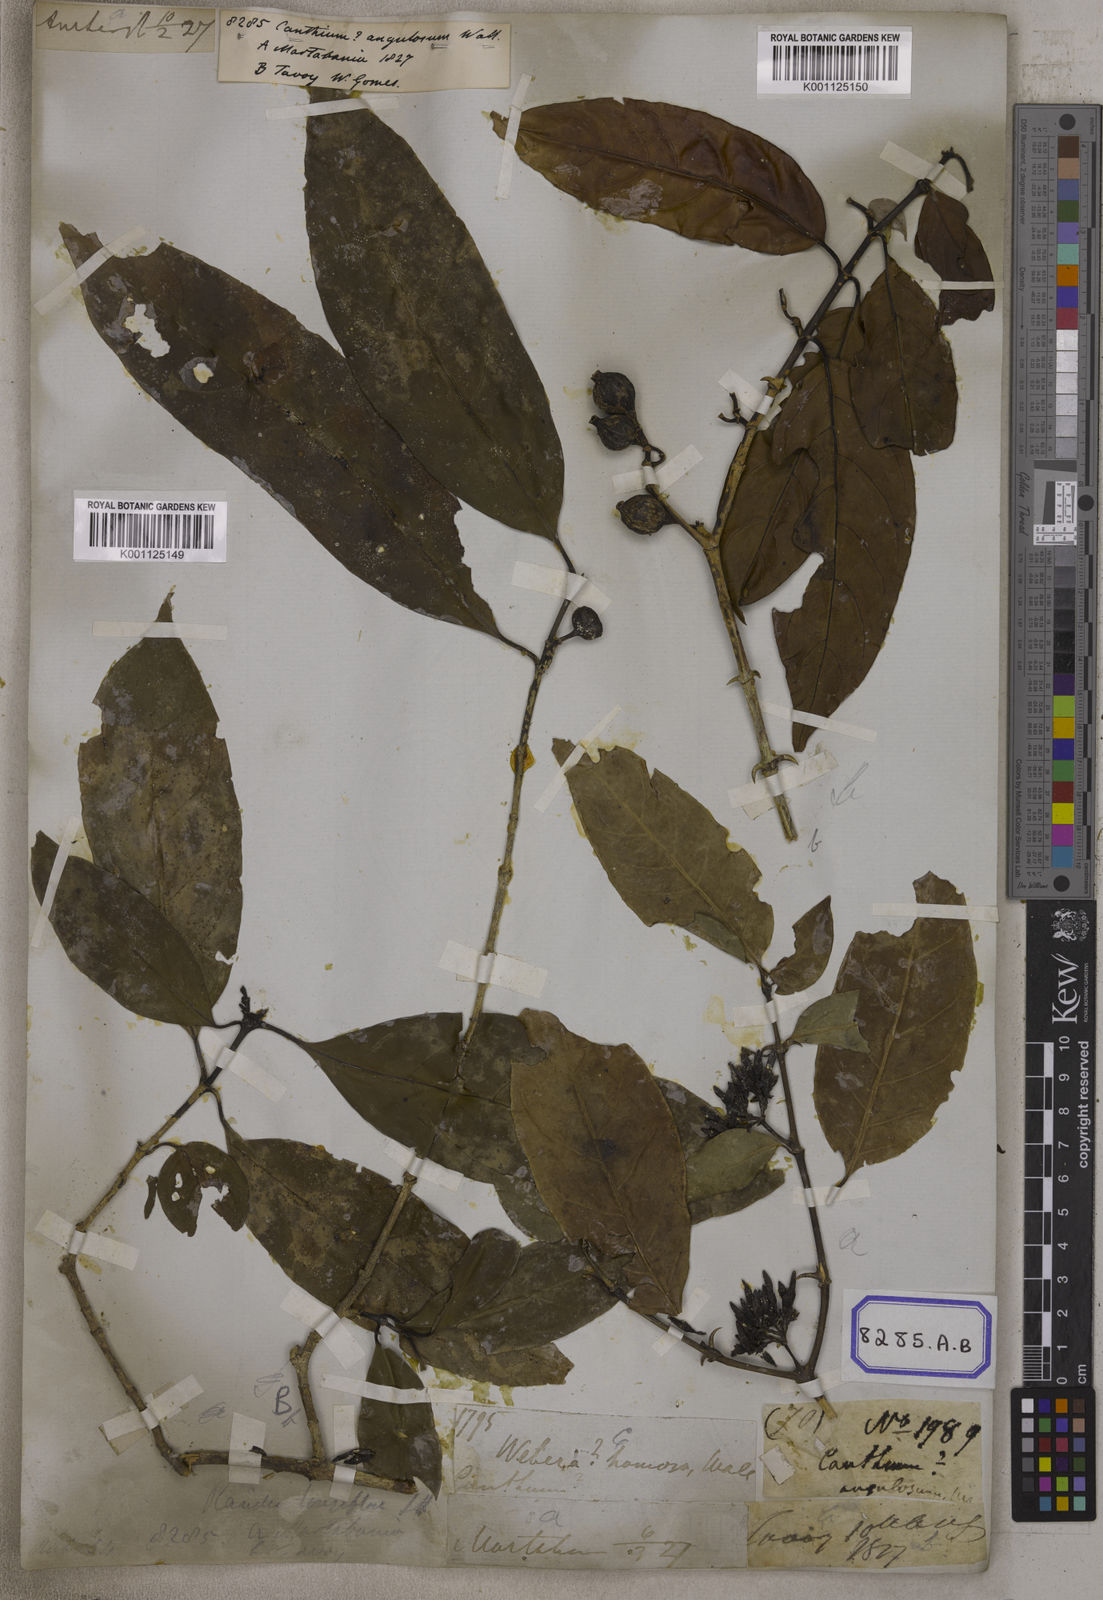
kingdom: Plantae
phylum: Tracheophyta
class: Magnoliopsida
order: Gentianales
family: Rubiaceae
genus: Oxyceros
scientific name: Oxyceros longiflorus
